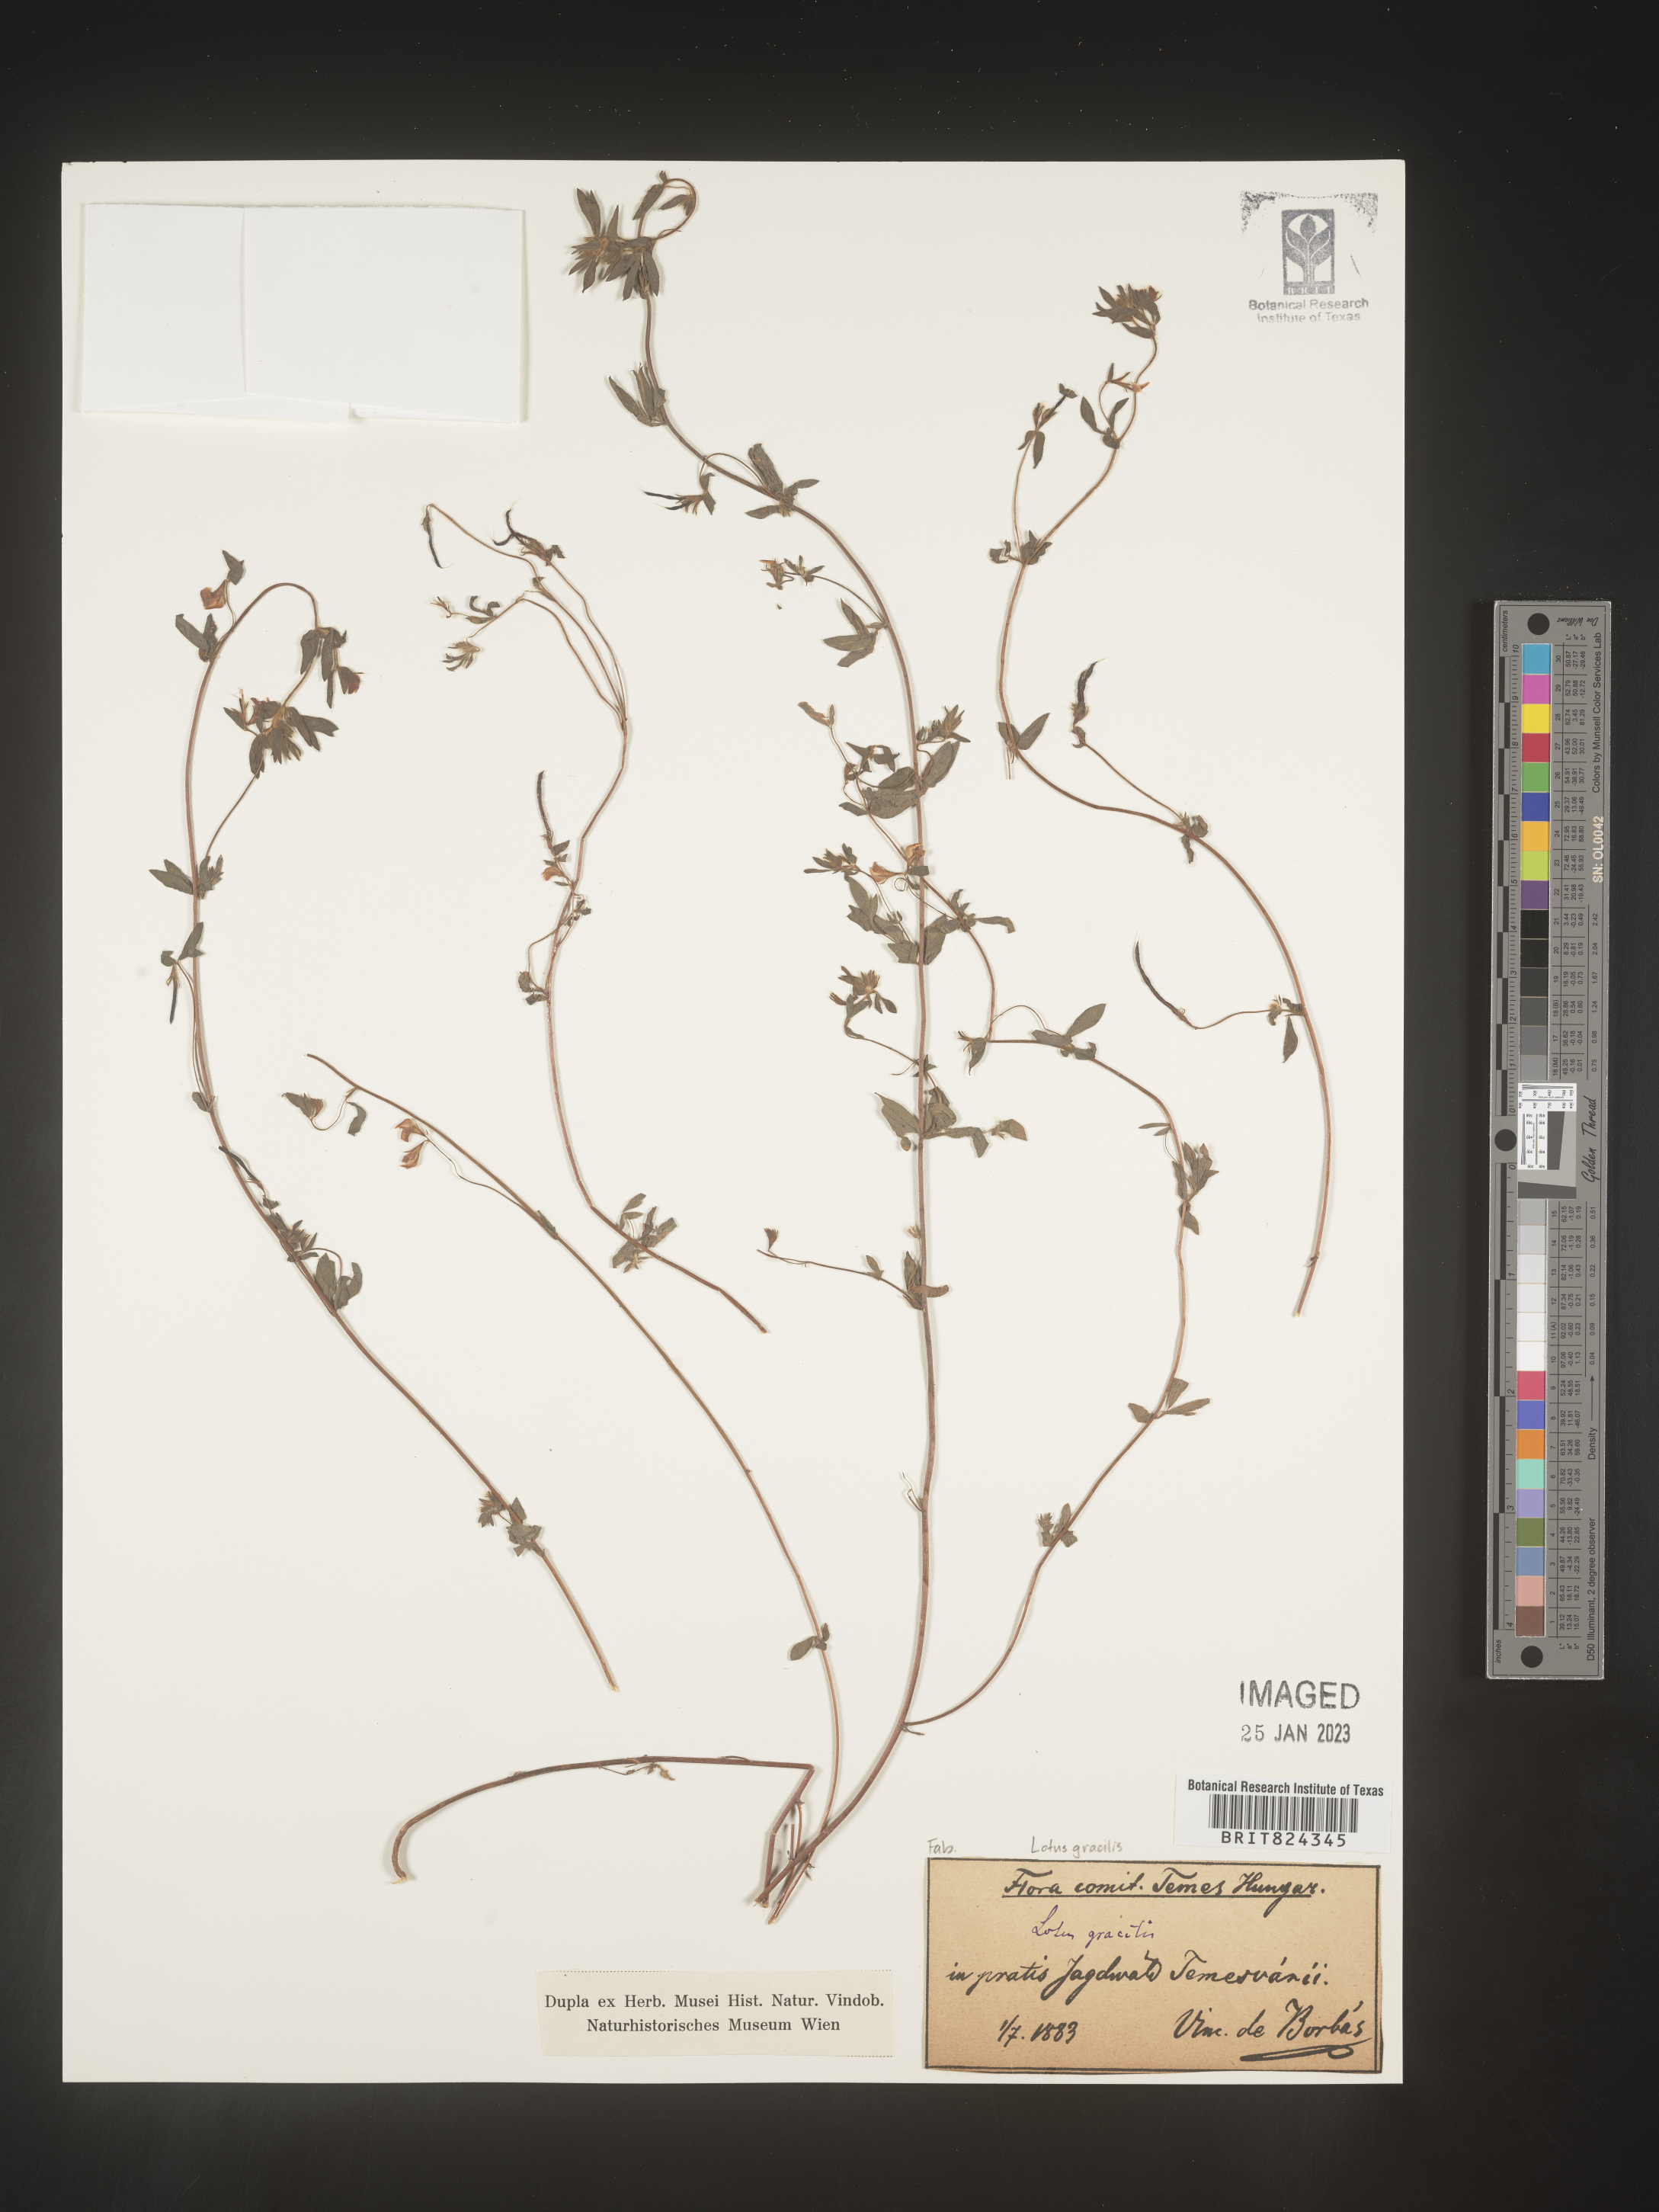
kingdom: Plantae
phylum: Tracheophyta
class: Magnoliopsida
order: Fabales
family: Fabaceae
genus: Lotus
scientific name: Lotus
